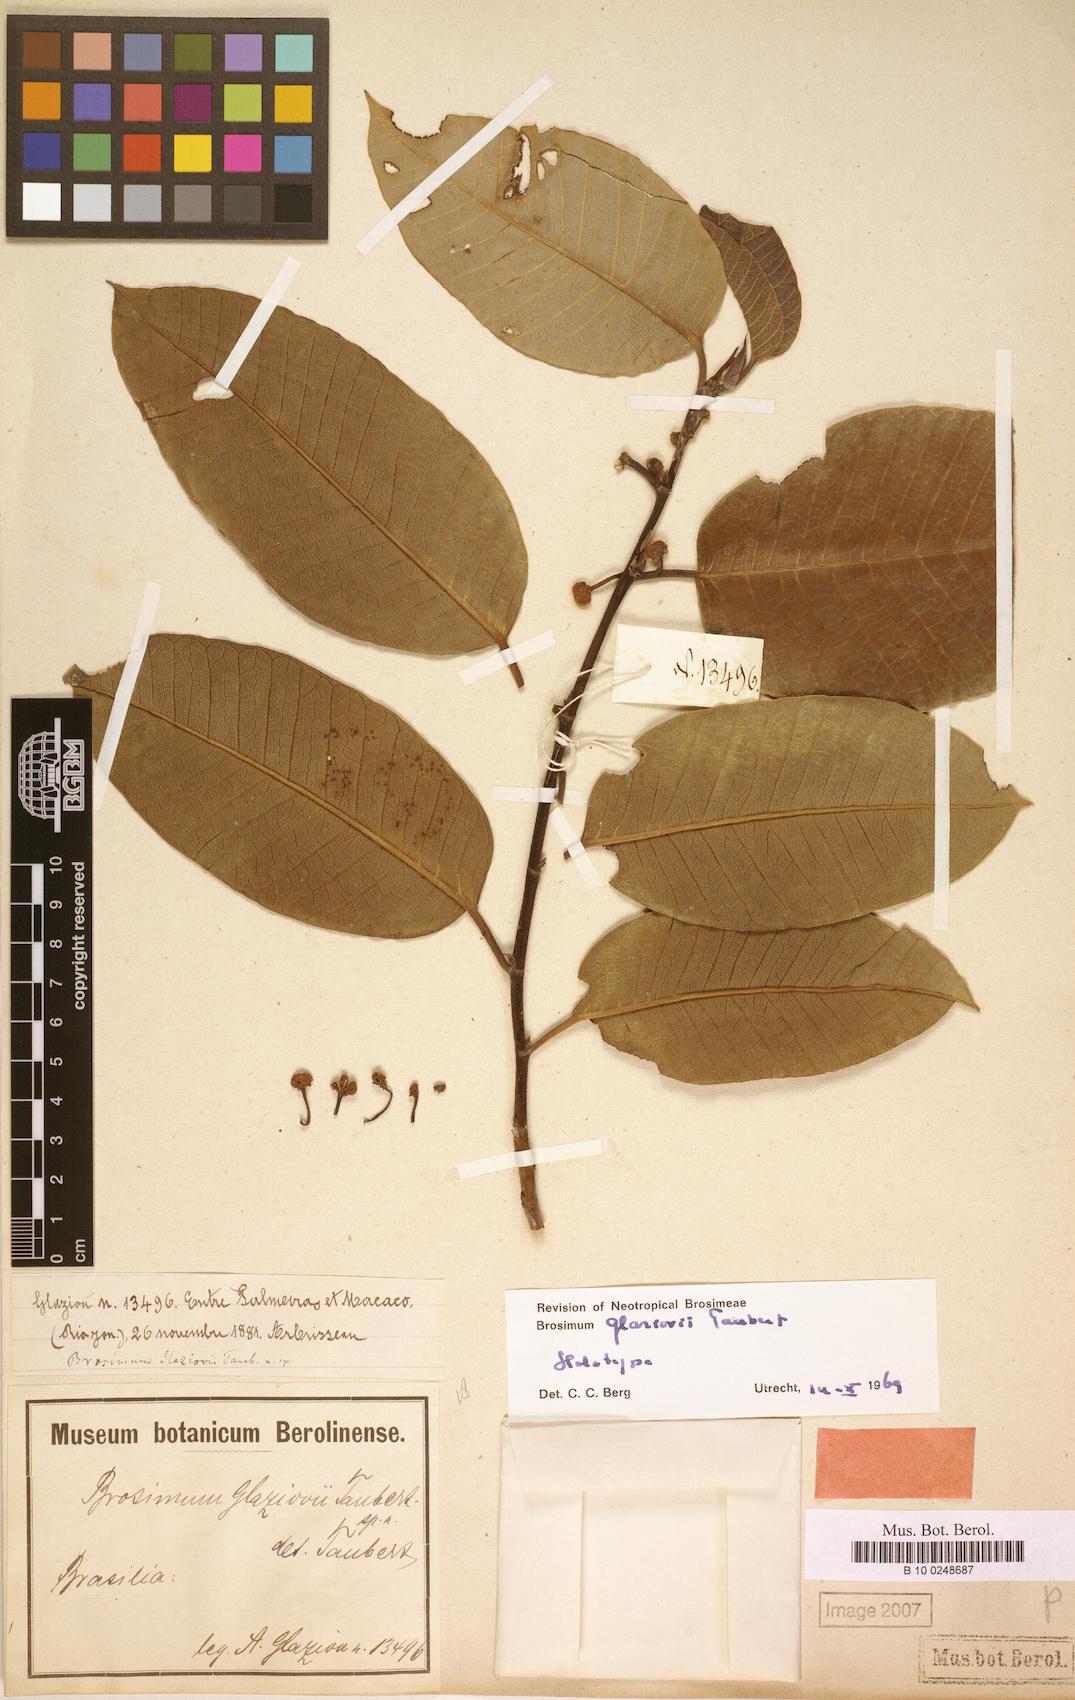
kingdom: Plantae
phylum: Tracheophyta
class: Magnoliopsida
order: Rosales
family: Moraceae
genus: Brosimum
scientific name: Brosimum glaziovii
